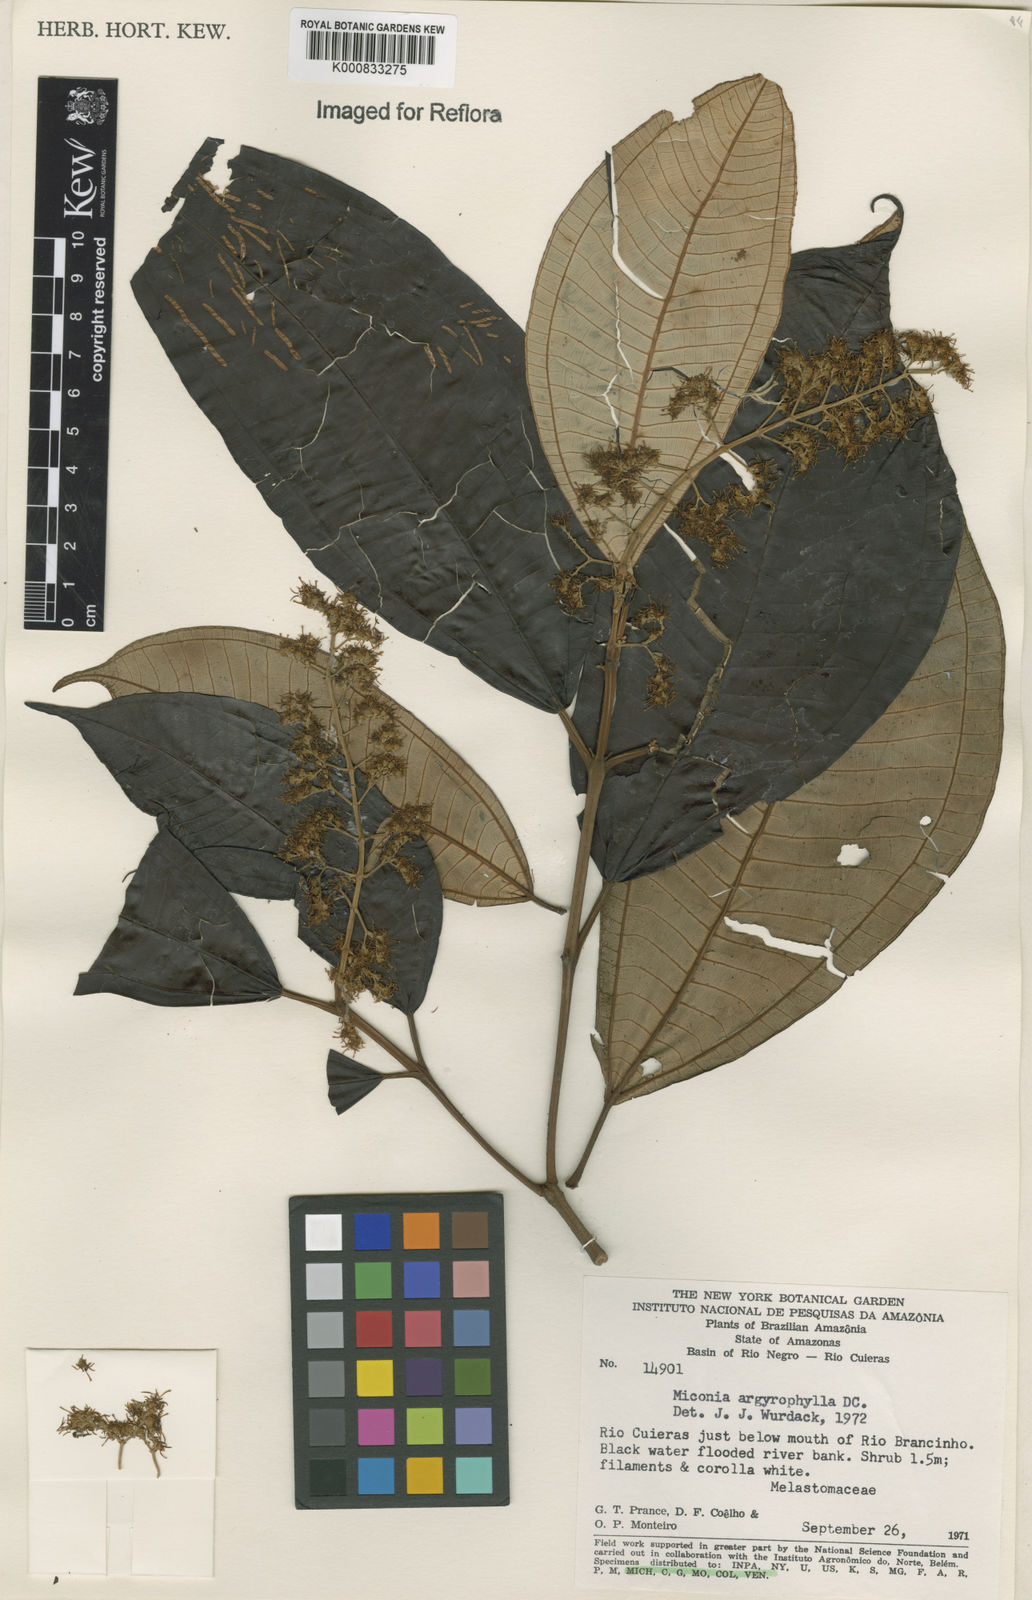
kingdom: Plantae
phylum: Tracheophyta
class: Magnoliopsida
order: Myrtales
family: Melastomataceae
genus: Miconia
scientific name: Miconia argyrophylla
